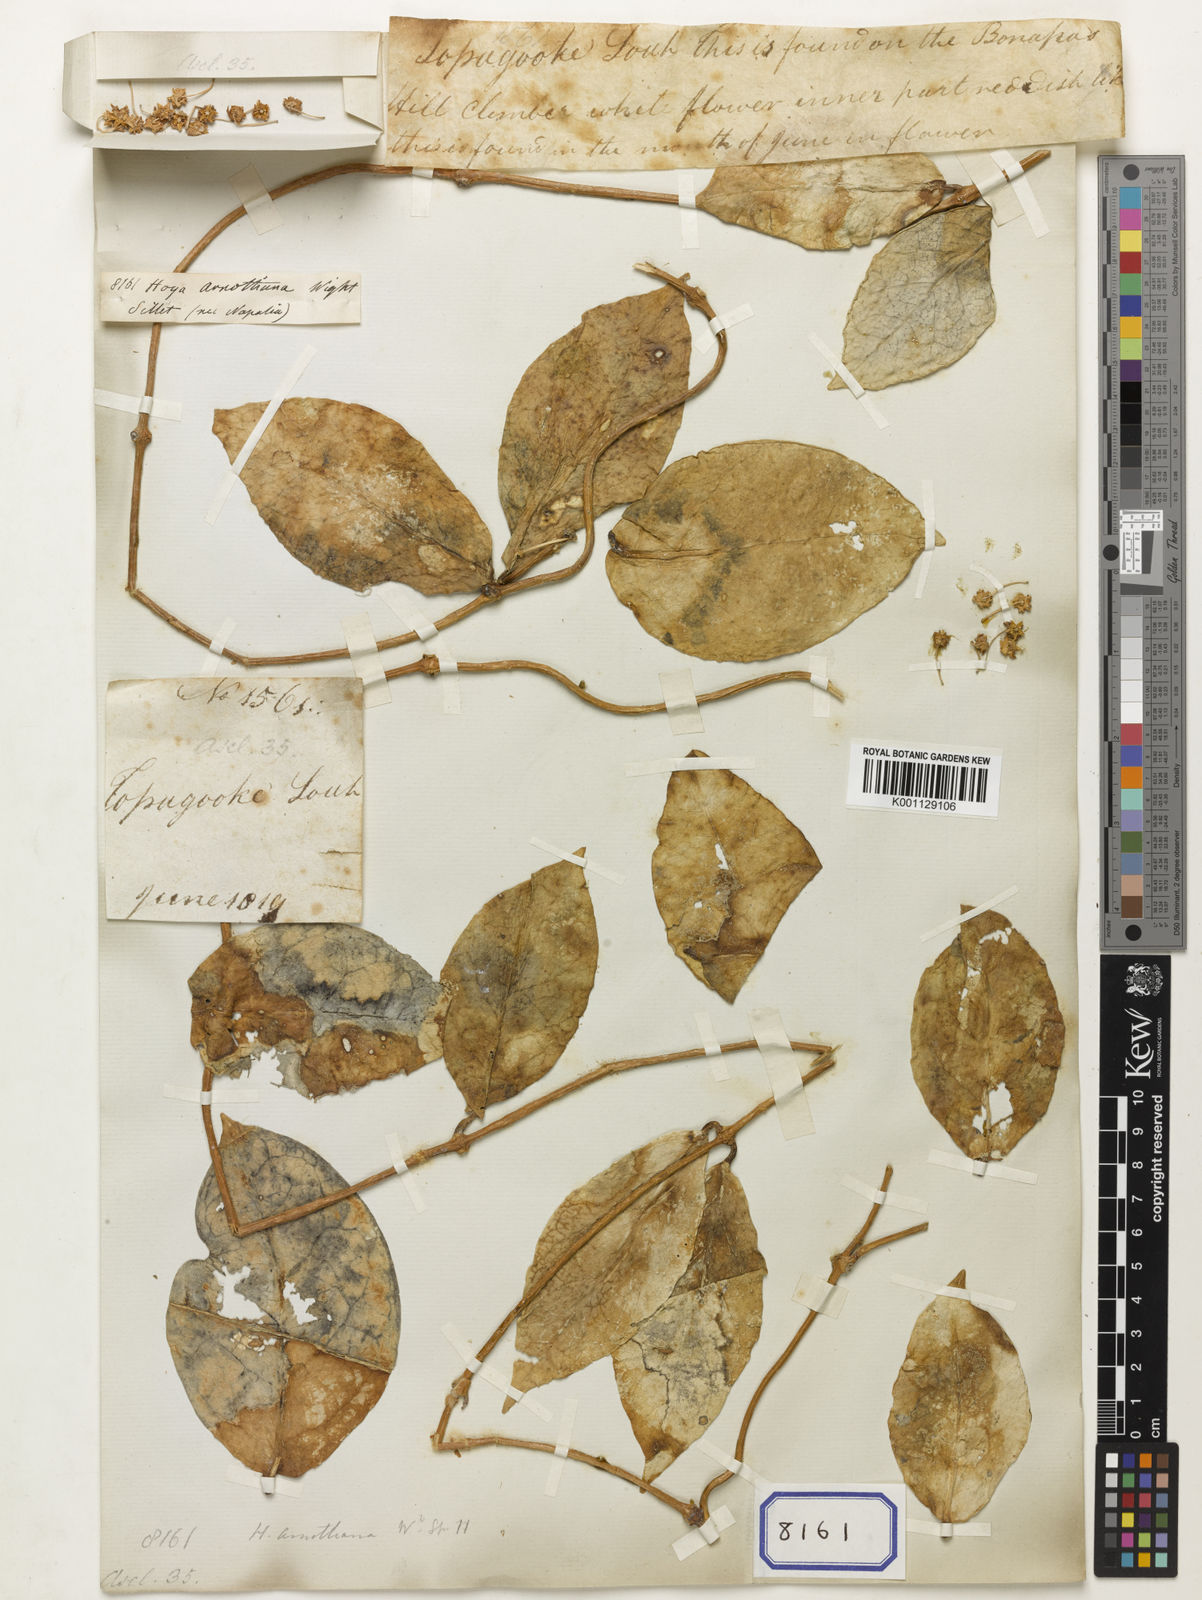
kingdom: Plantae
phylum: Tracheophyta
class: Magnoliopsida
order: Gentianales
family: Apocynaceae
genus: Hoya
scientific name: Hoya arnottiana
